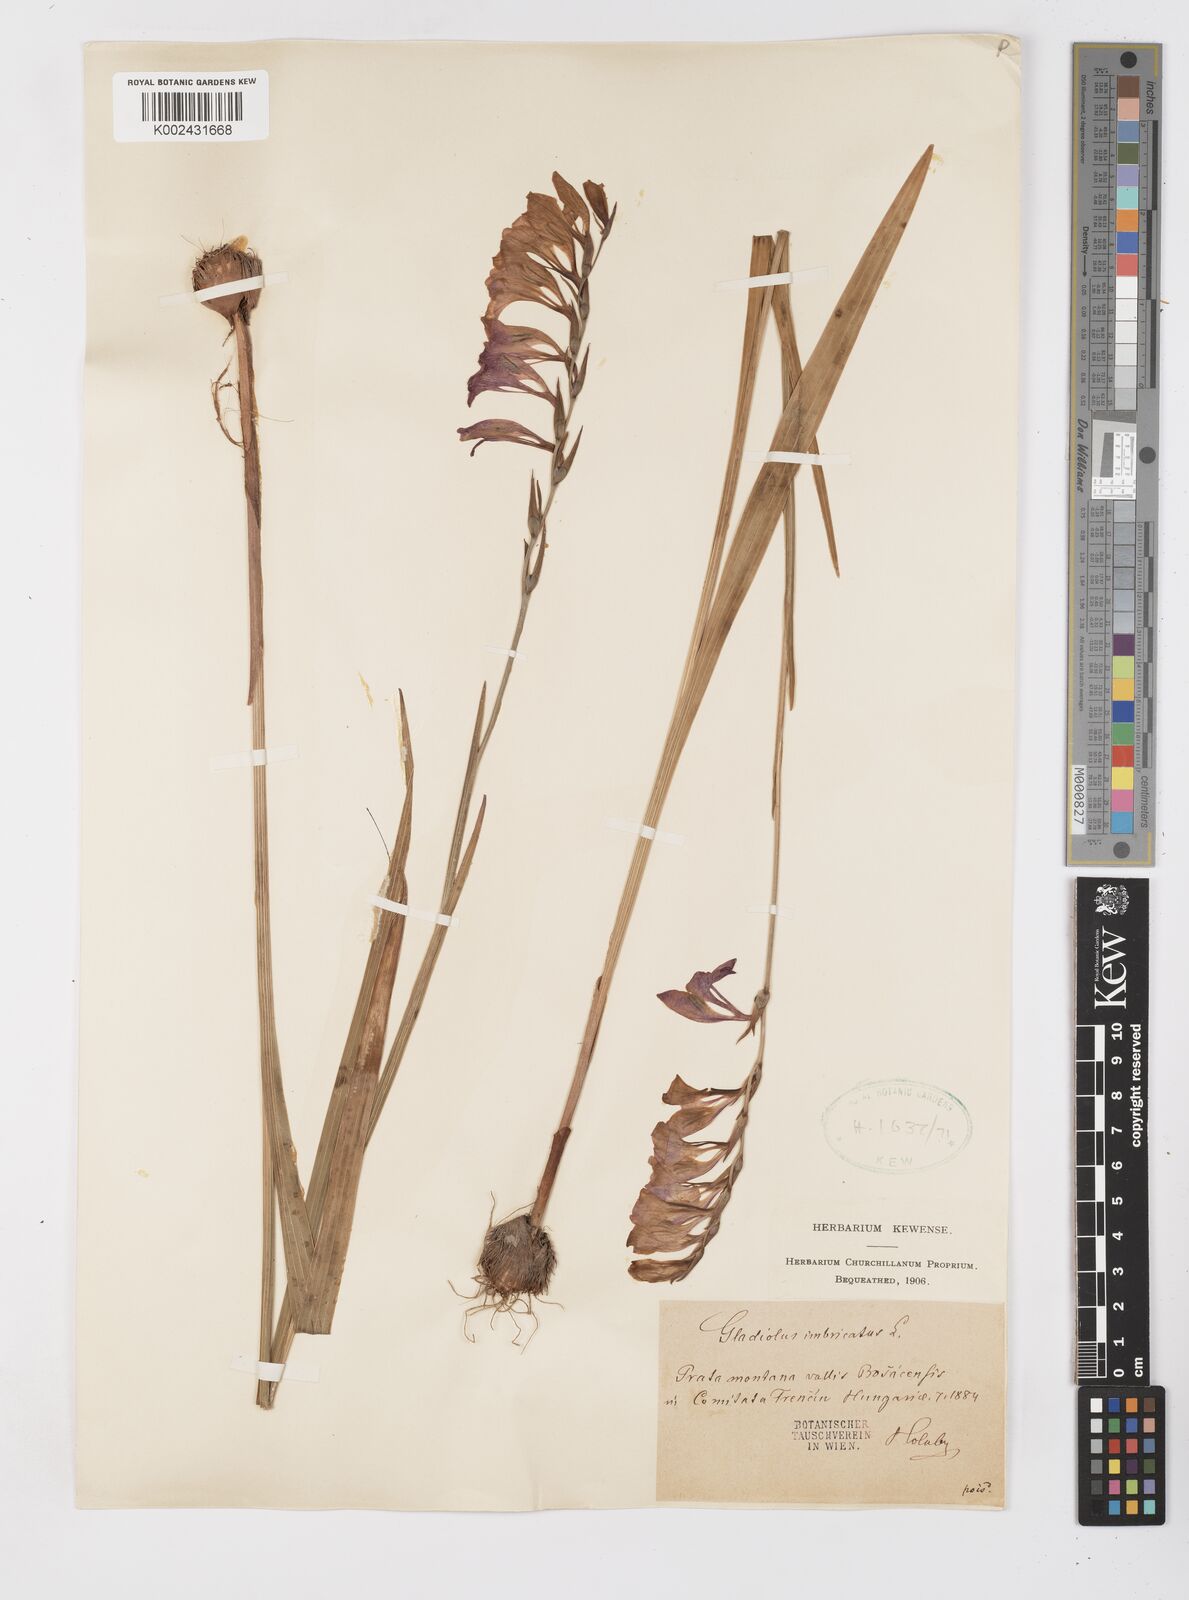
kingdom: Plantae
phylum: Tracheophyta
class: Liliopsida
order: Asparagales
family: Iridaceae
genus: Gladiolus
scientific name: Gladiolus imbricatus
